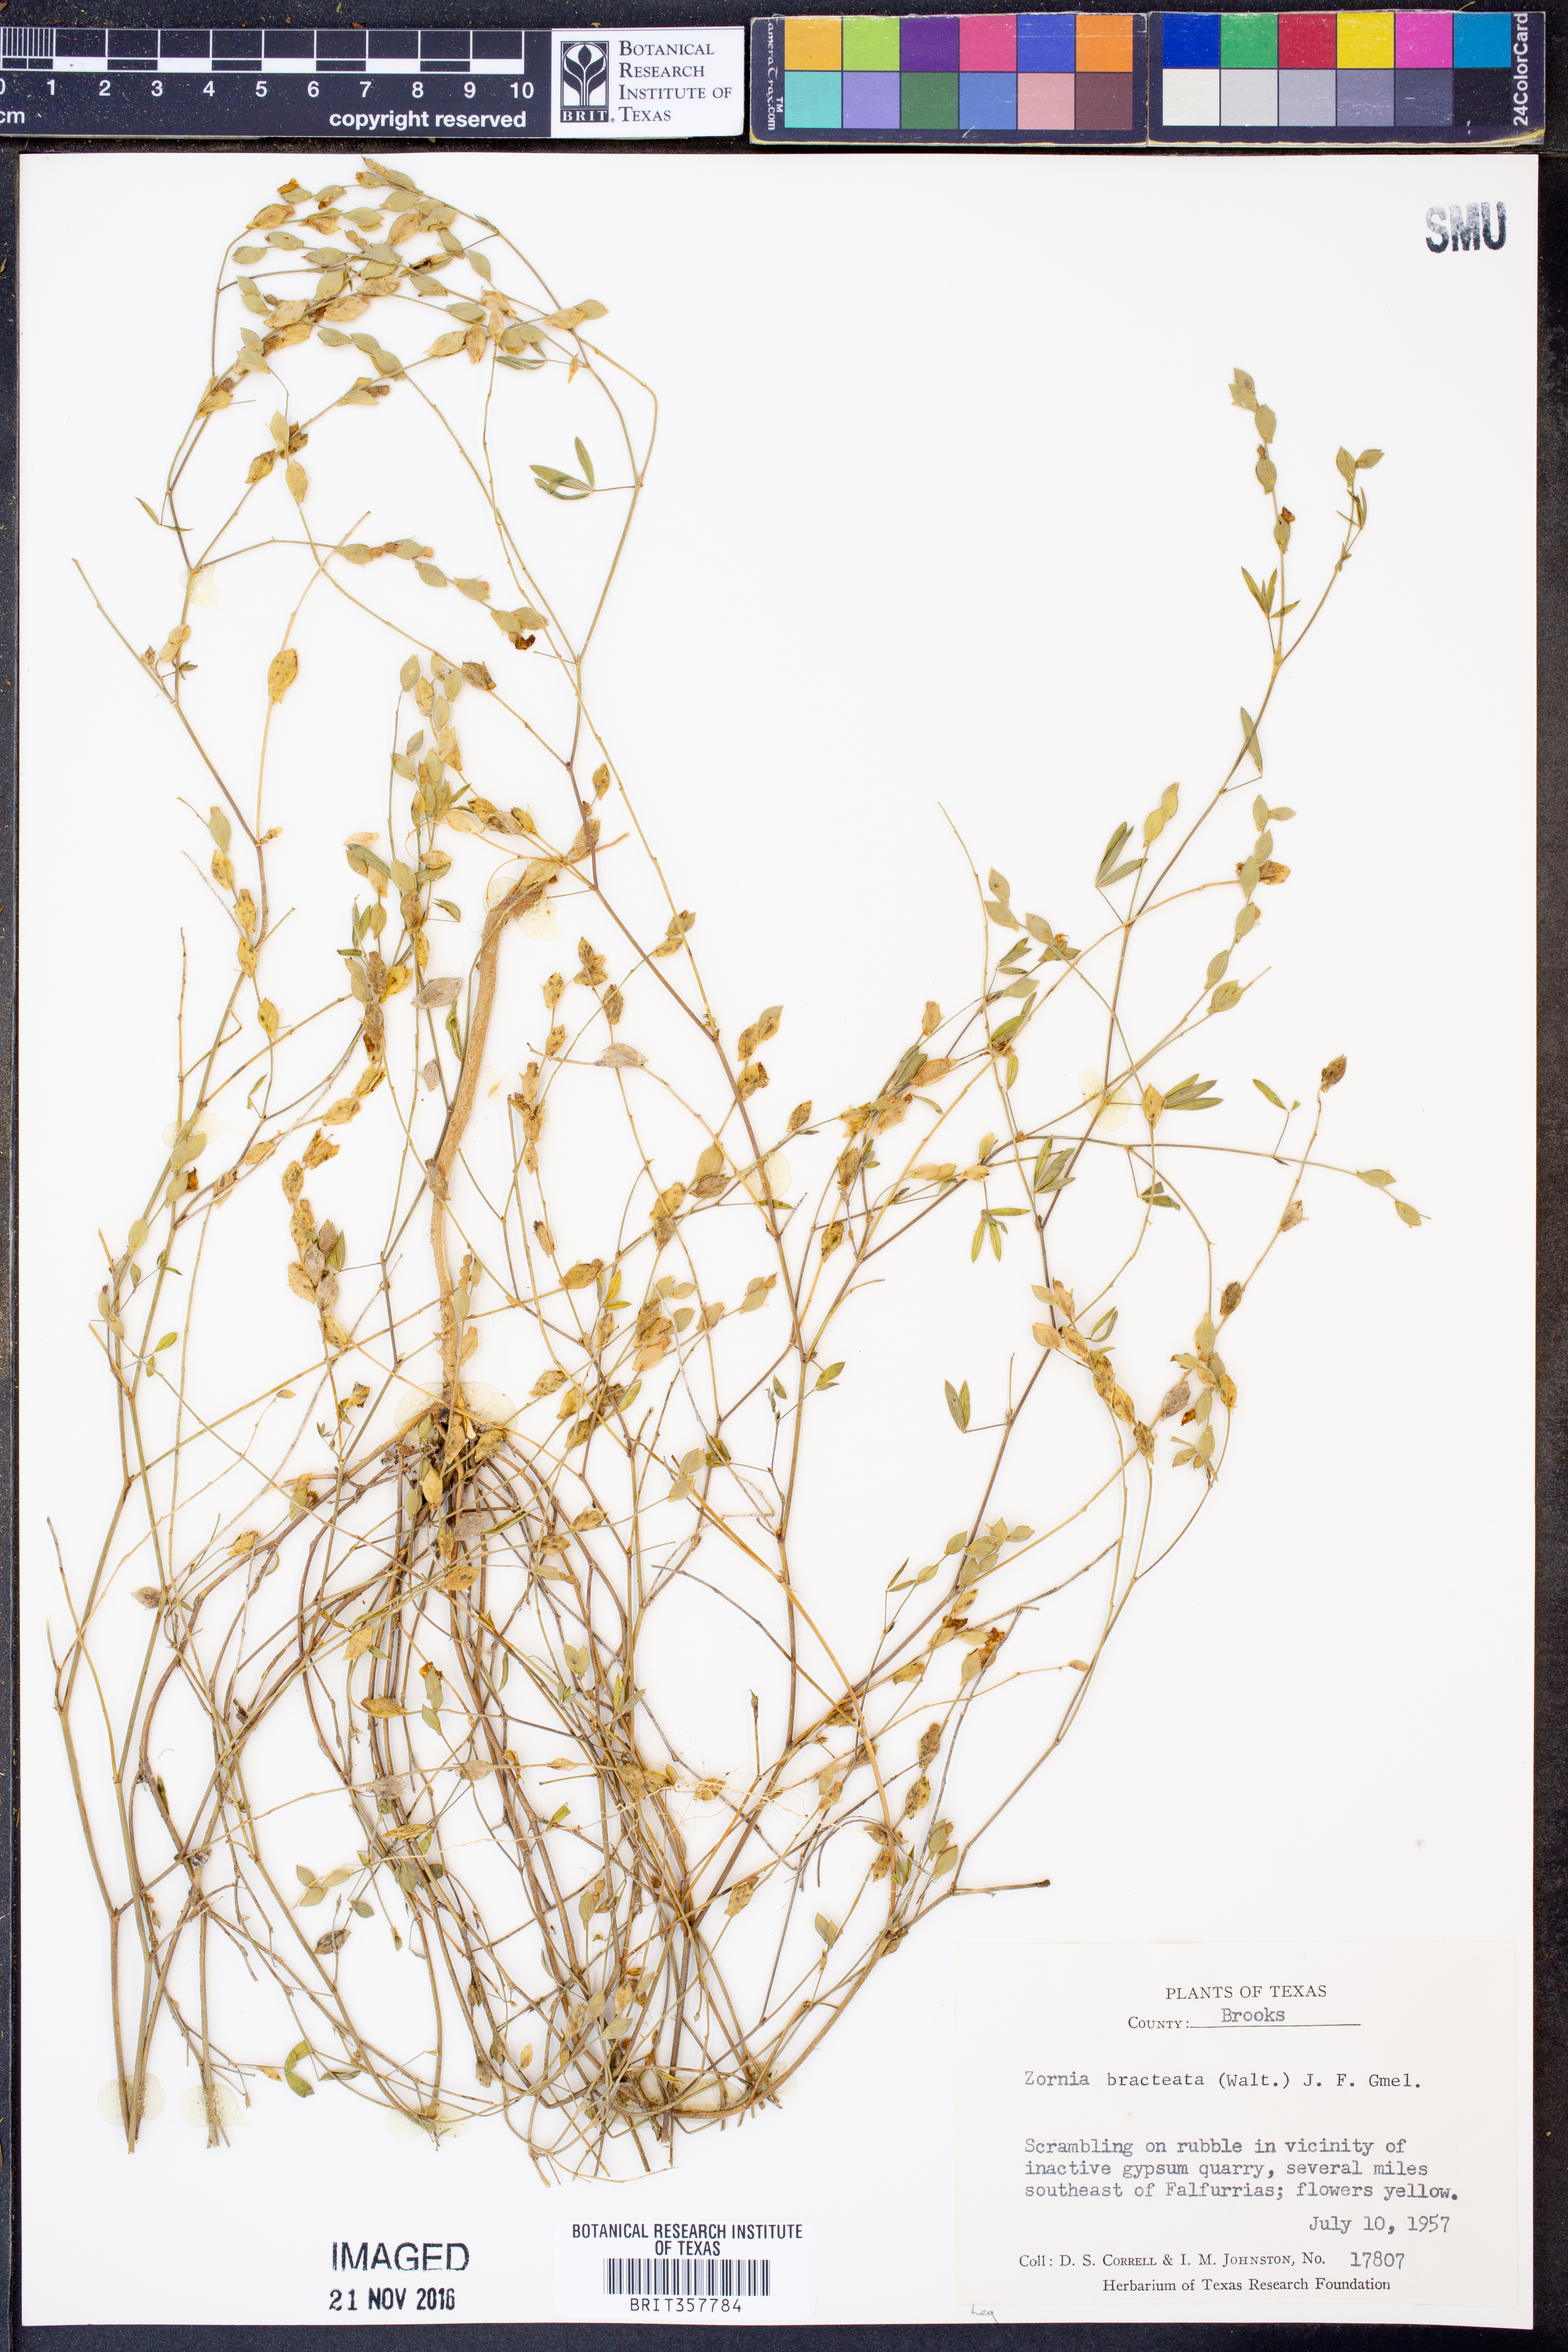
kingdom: Plantae
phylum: Tracheophyta
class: Magnoliopsida
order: Fabales
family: Fabaceae
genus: Zornia
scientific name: Zornia bracteata
